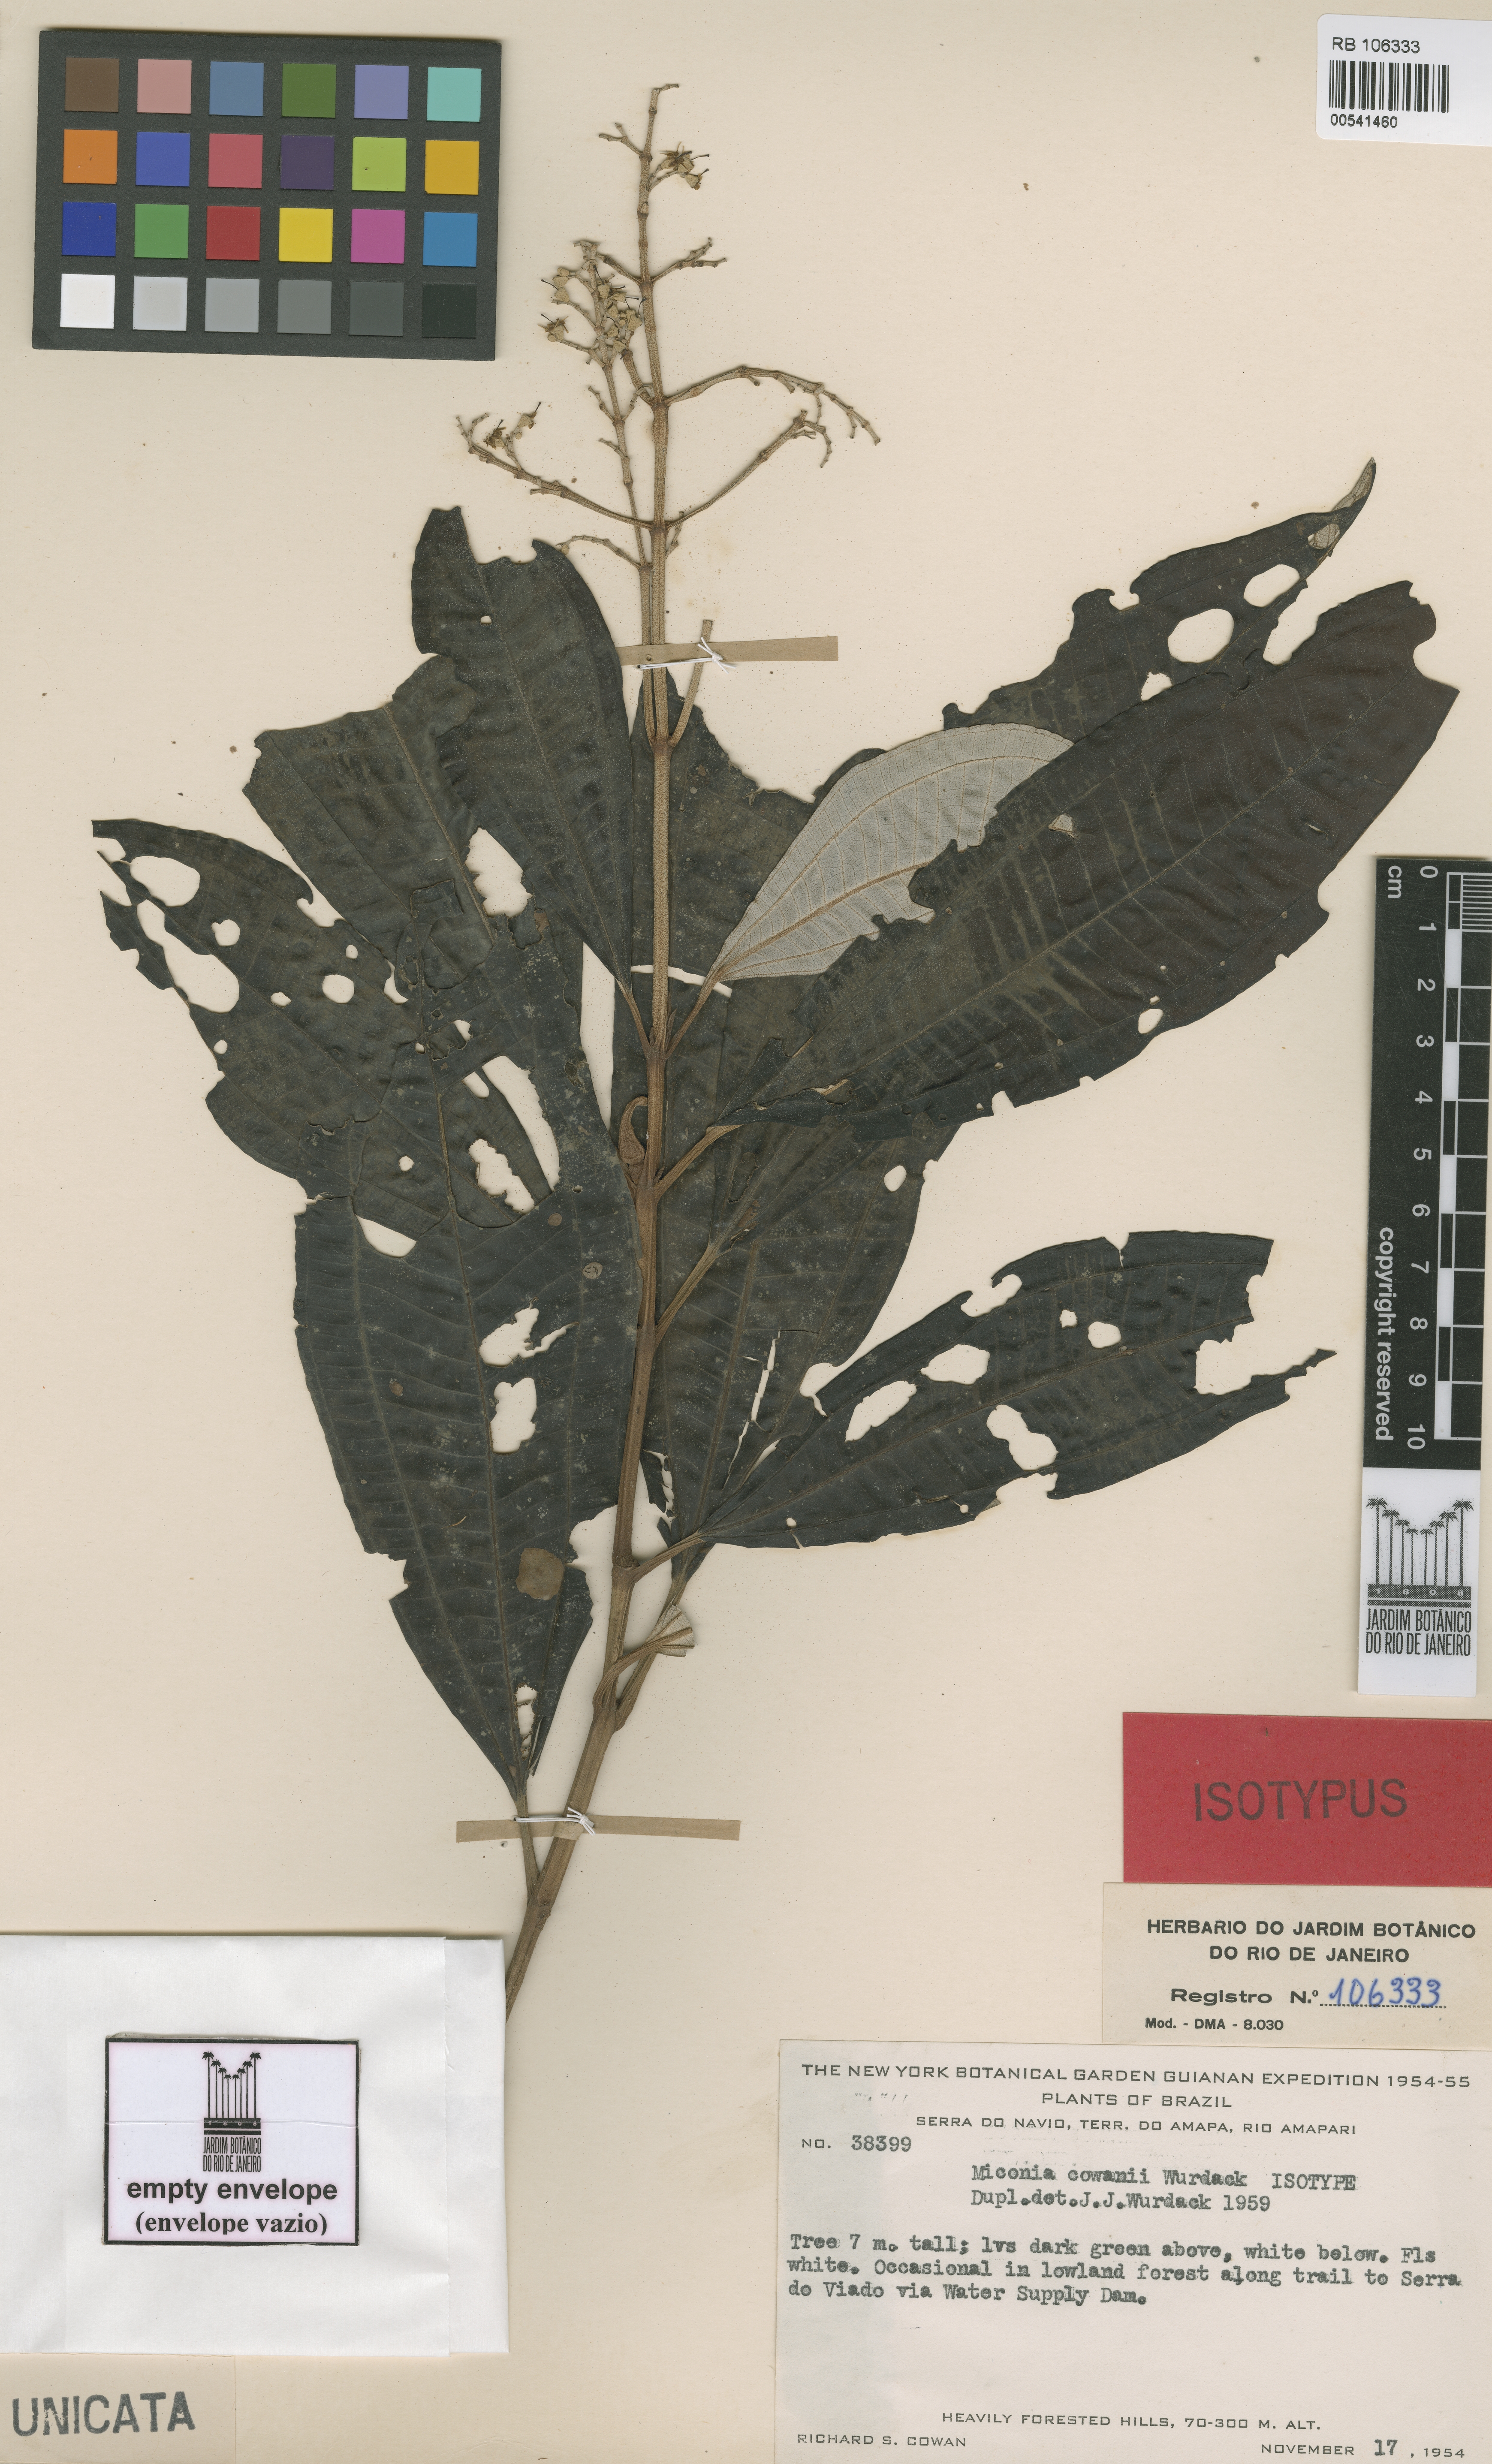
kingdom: Plantae
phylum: Tracheophyta
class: Magnoliopsida
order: Myrtales
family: Melastomataceae
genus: Miconia
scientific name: Miconia cowanii
